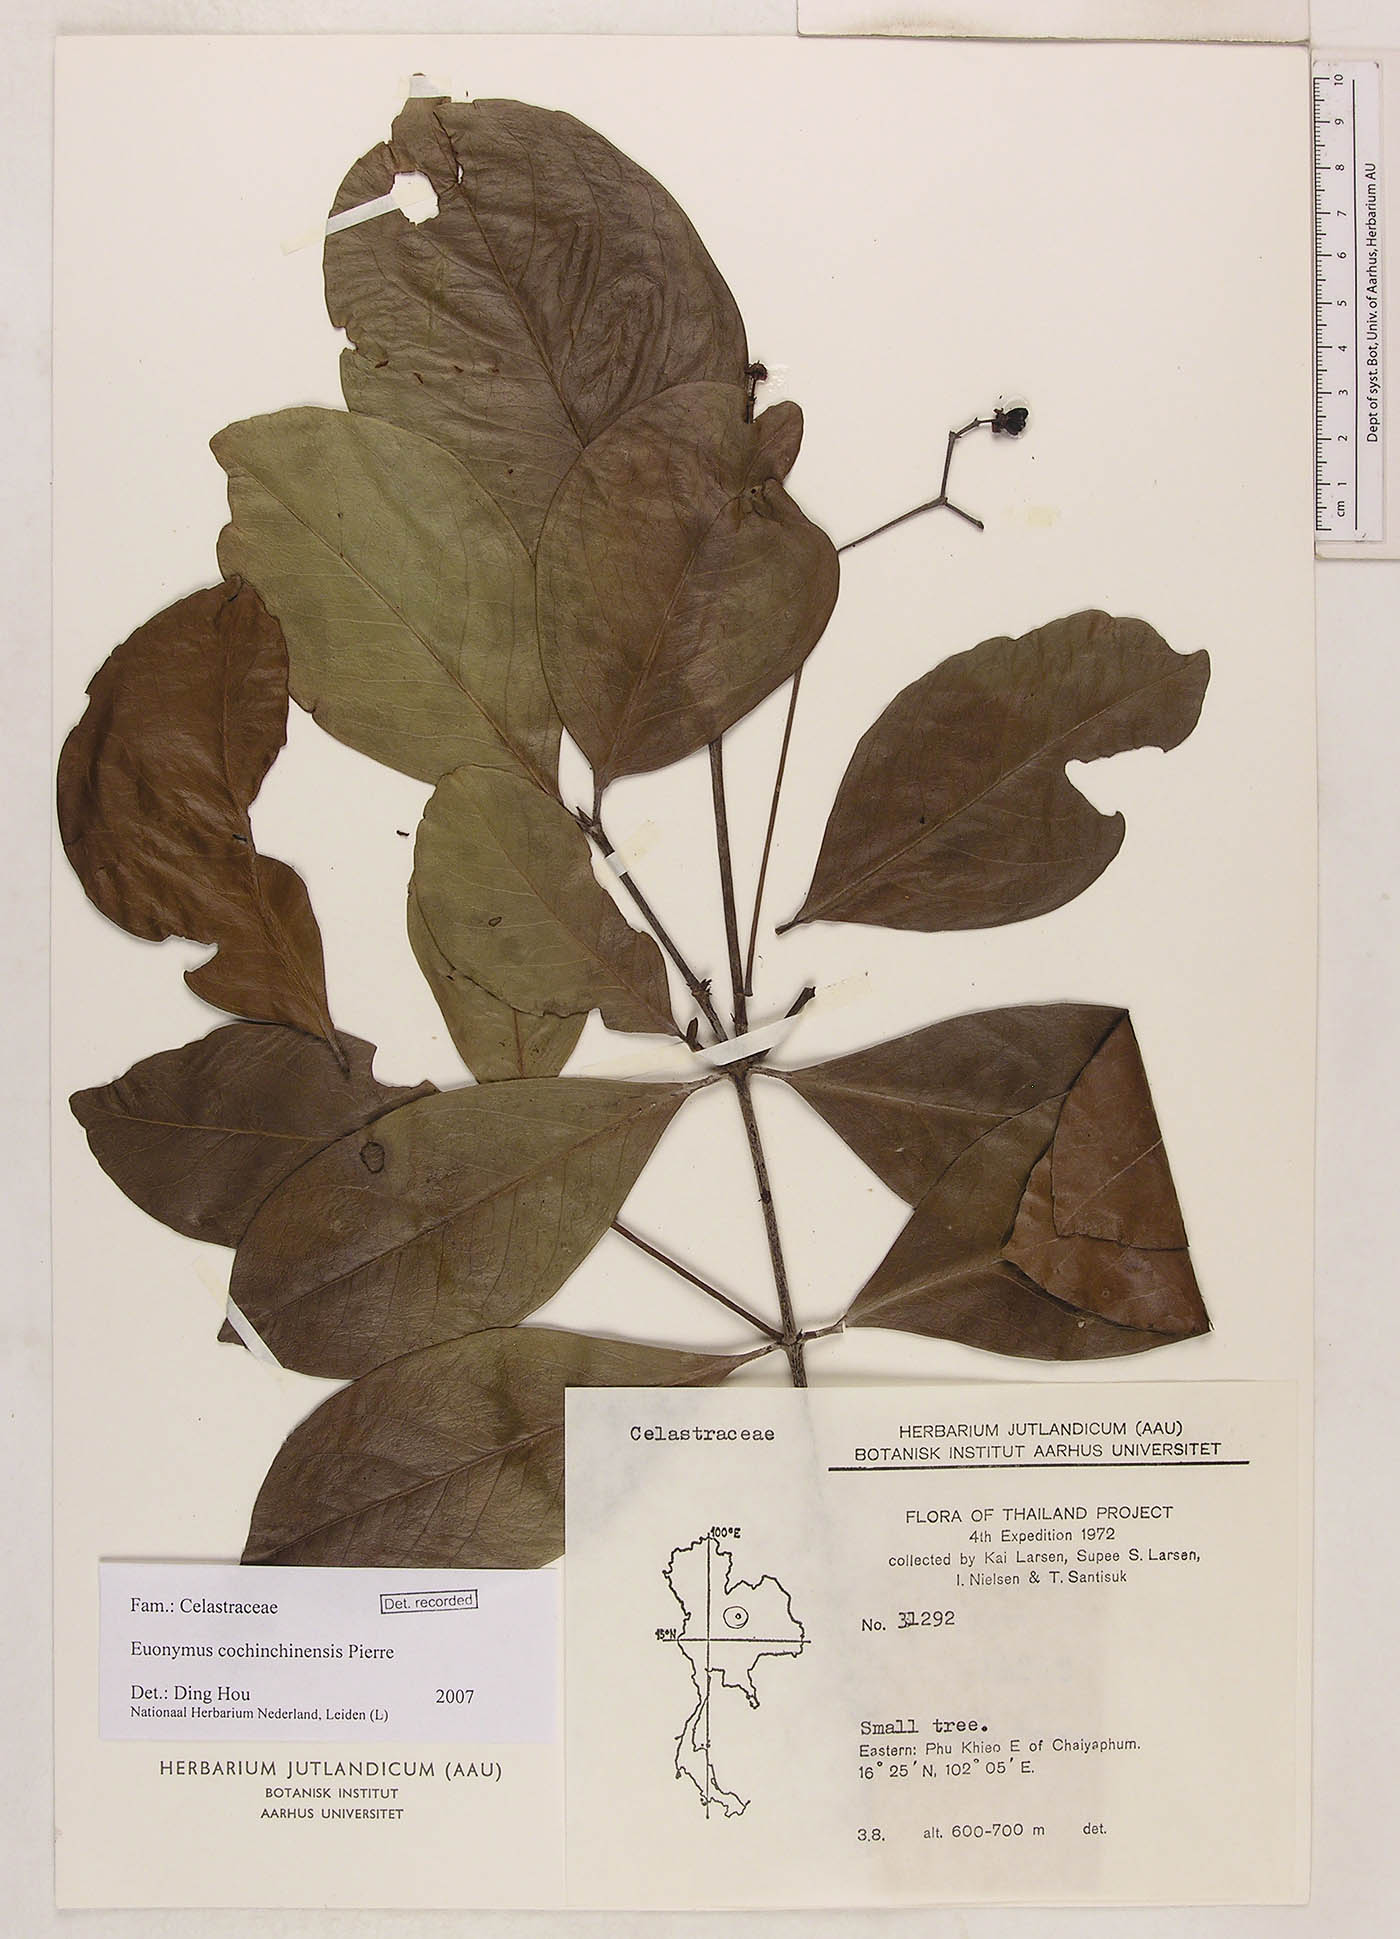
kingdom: Plantae
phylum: Tracheophyta
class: Magnoliopsida
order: Celastrales
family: Celastraceae
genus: Euonymus
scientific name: Euonymus cochinchinensis
